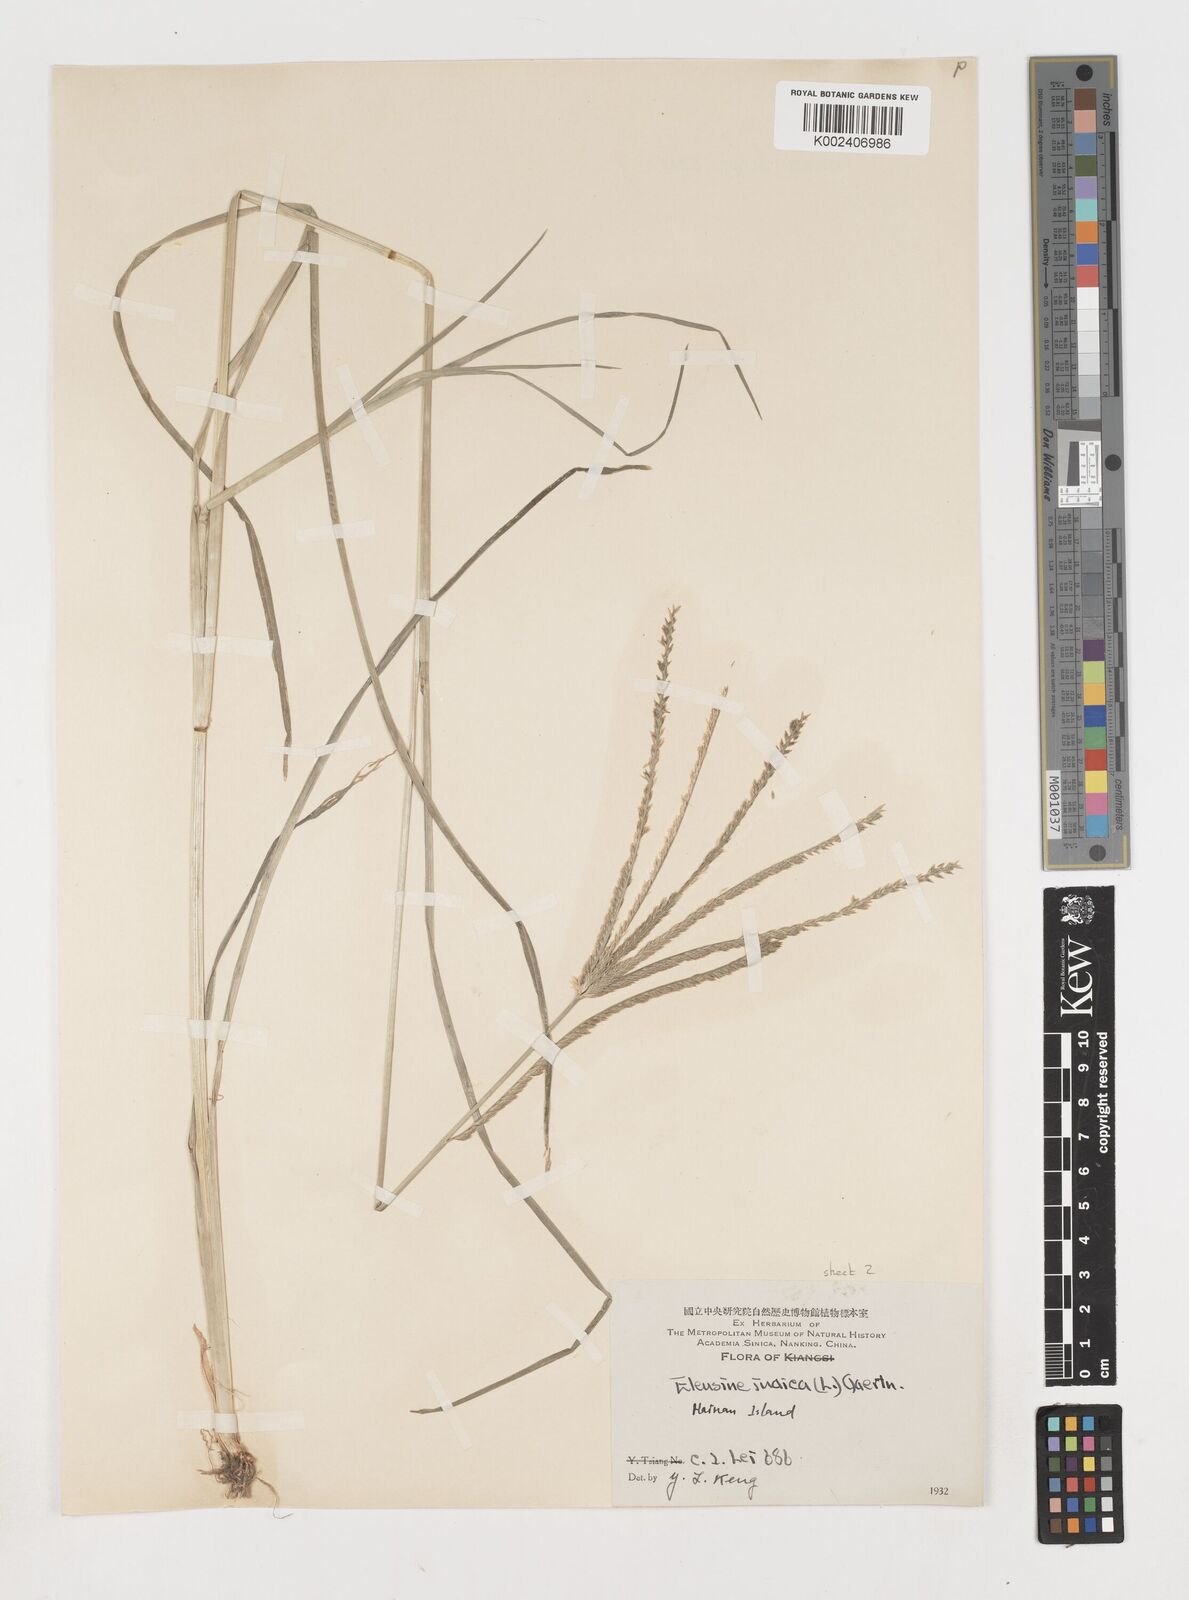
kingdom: Plantae
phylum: Tracheophyta
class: Liliopsida
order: Poales
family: Poaceae
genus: Eleusine
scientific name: Eleusine indica
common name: Yard-grass
